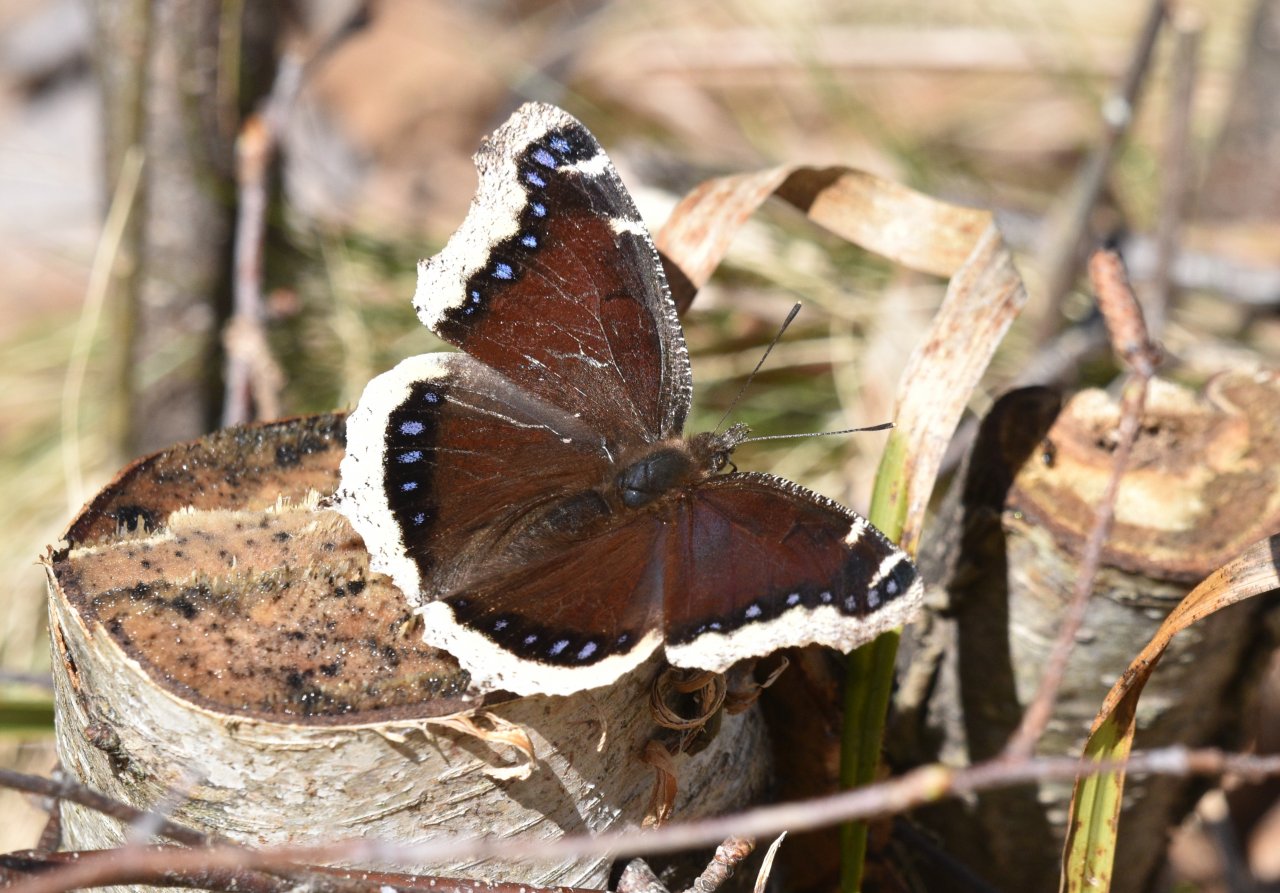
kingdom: Animalia
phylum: Arthropoda
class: Insecta
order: Lepidoptera
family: Nymphalidae
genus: Nymphalis
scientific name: Nymphalis antiopa
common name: Mourning Cloak
